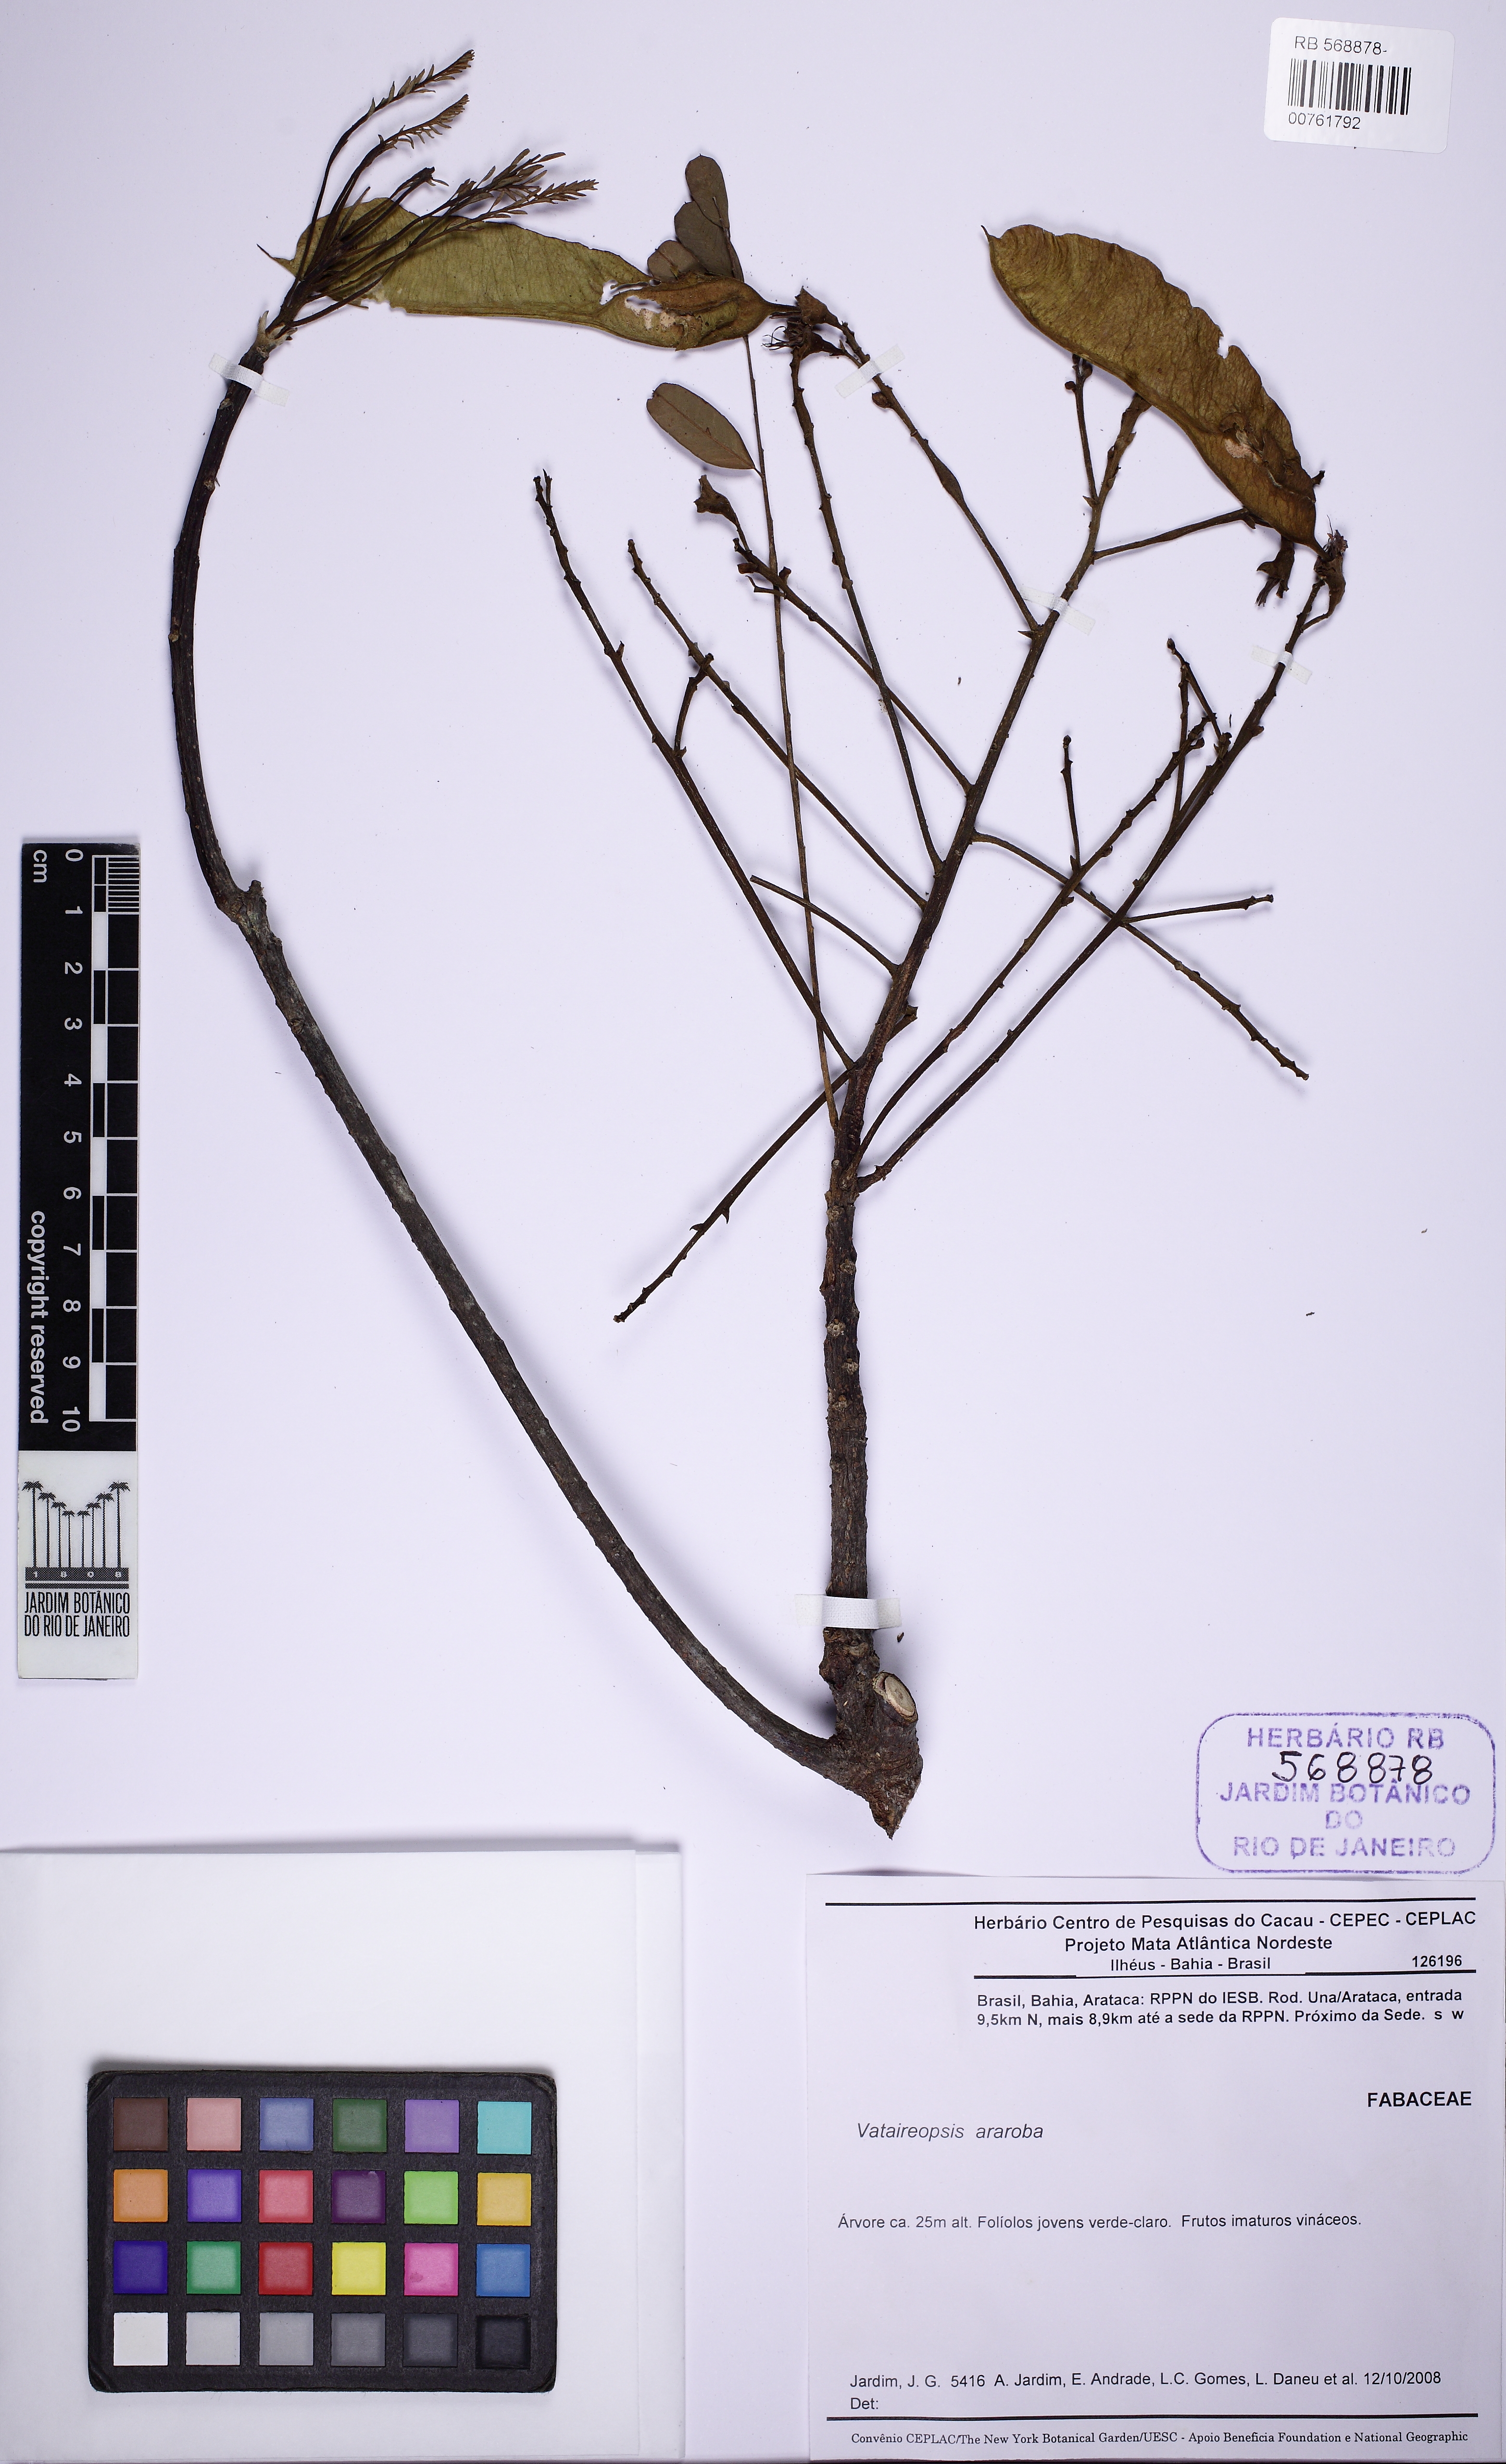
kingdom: Plantae
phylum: Tracheophyta
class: Magnoliopsida
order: Fabales
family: Fabaceae
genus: Vataireopsis
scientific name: Vataireopsis araroba
